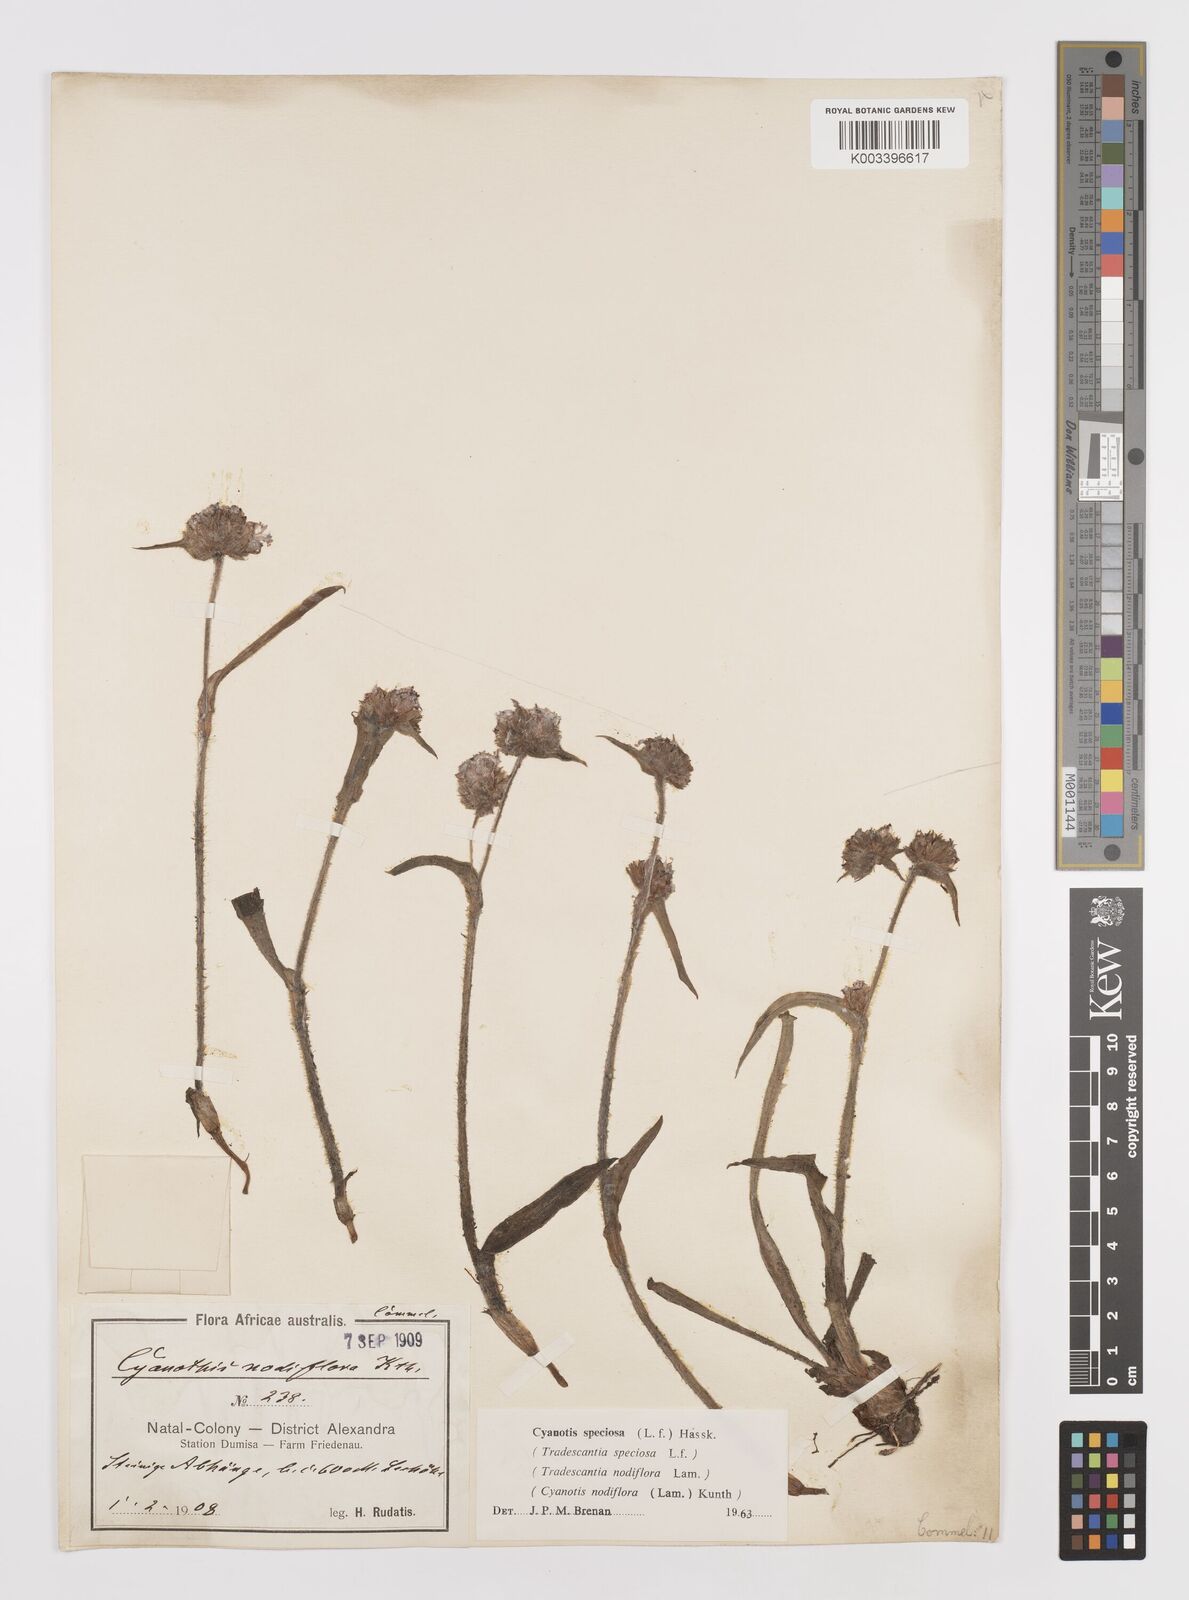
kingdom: Plantae
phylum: Tracheophyta
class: Liliopsida
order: Commelinales
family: Commelinaceae
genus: Cyanotis
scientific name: Cyanotis speciosa
